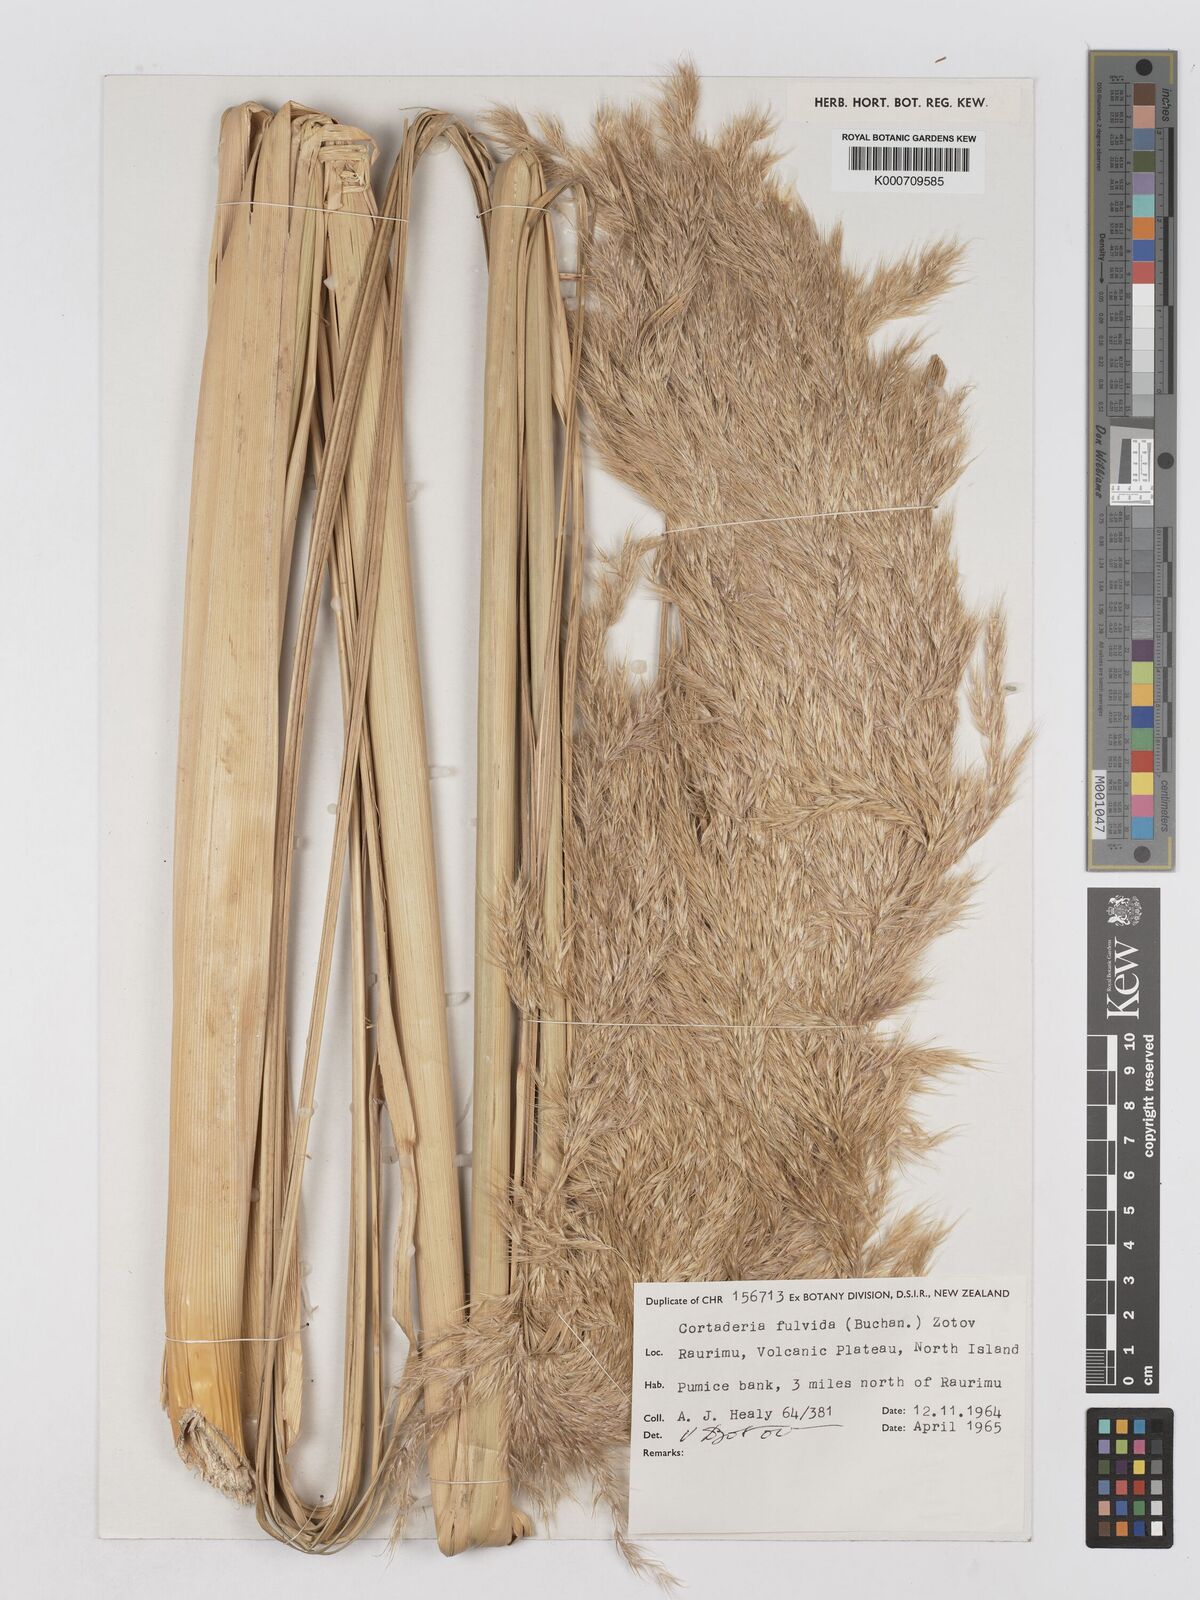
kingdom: Plantae
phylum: Tracheophyta
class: Liliopsida
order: Poales
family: Poaceae
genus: Austroderia
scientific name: Austroderia fulvida
